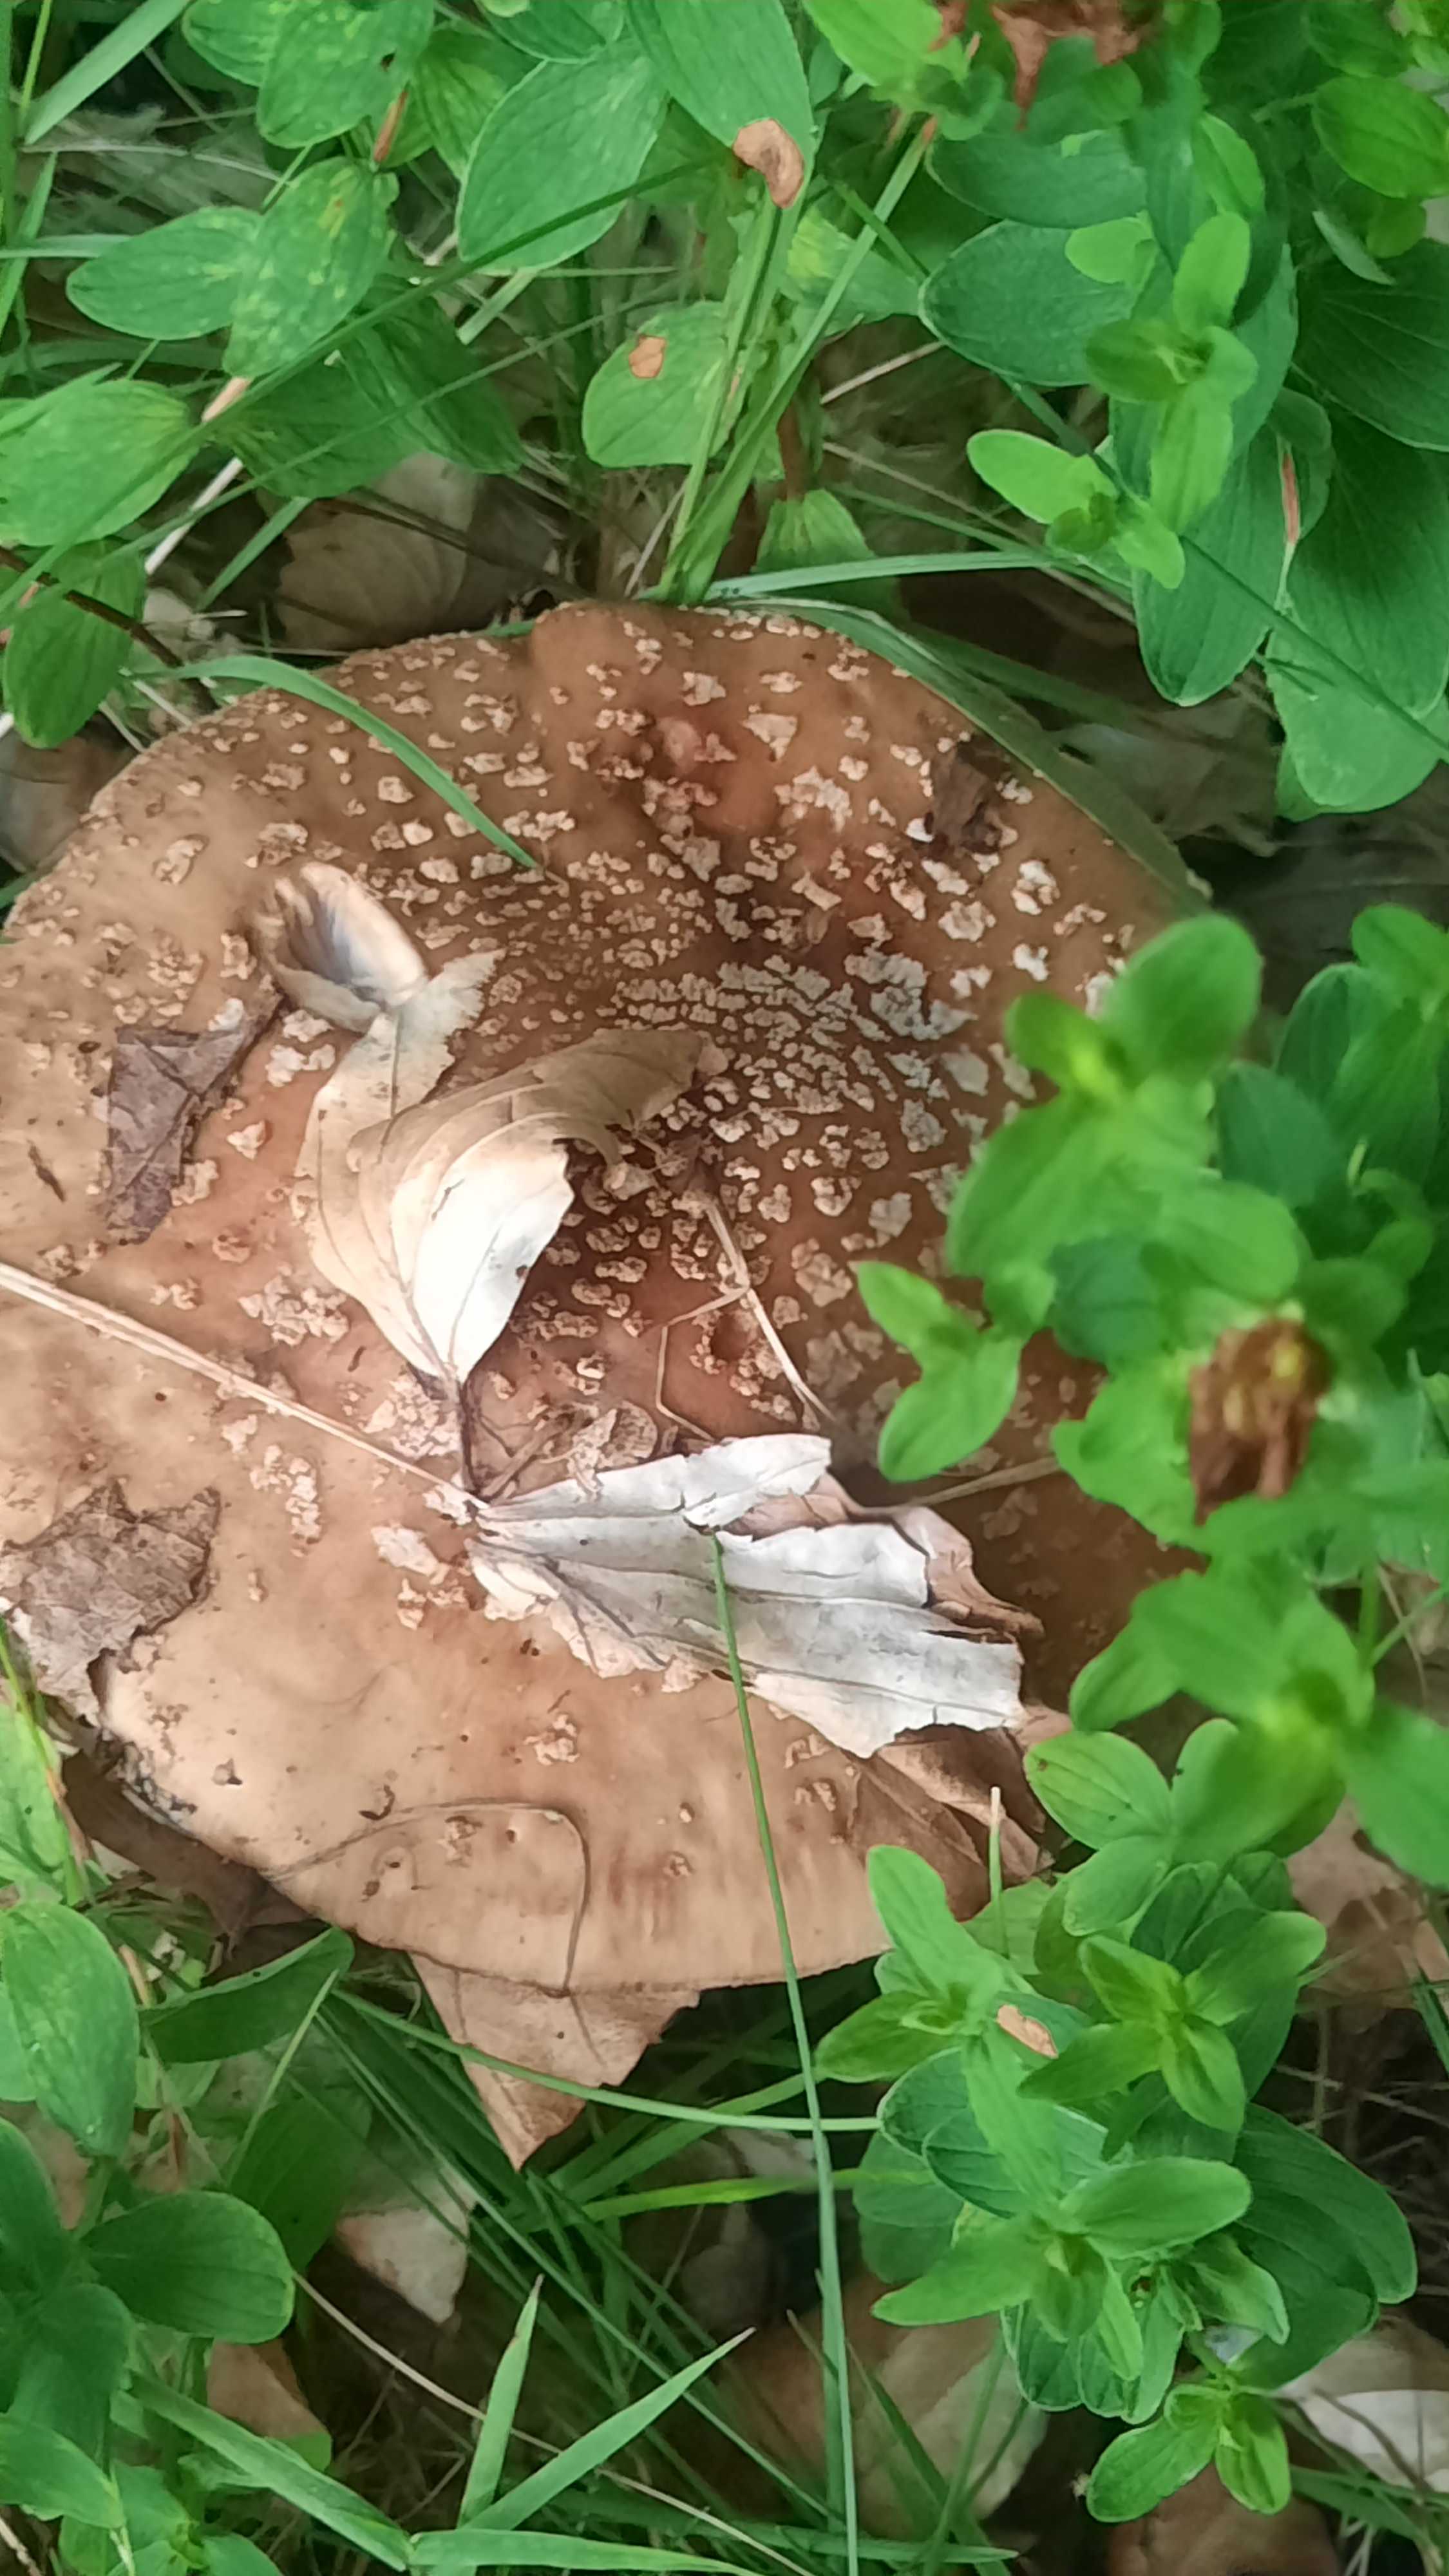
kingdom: Fungi
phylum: Basidiomycota
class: Agaricomycetes
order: Agaricales
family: Amanitaceae
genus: Amanita
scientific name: Amanita rubescens
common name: rødmende fluesvamp
